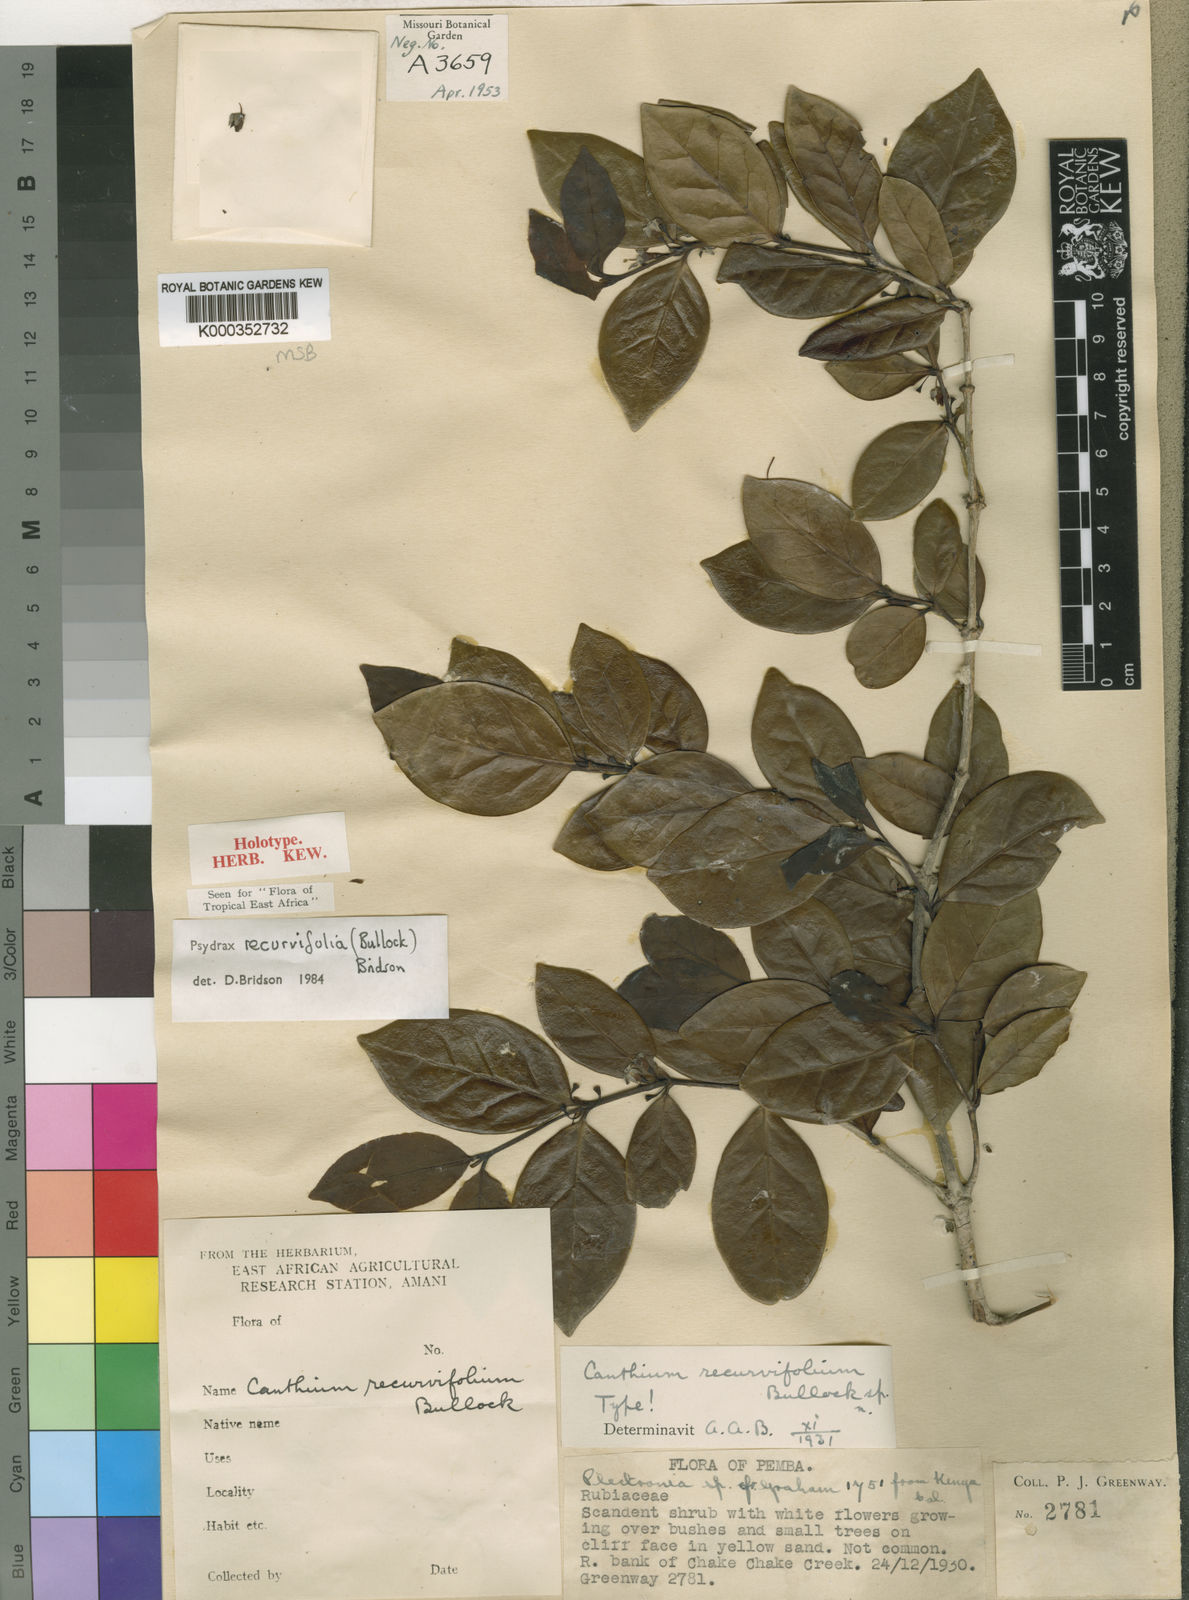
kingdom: Plantae
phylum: Tracheophyta
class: Magnoliopsida
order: Gentianales
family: Rubiaceae
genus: Psydrax
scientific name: Psydrax recurvifolius
